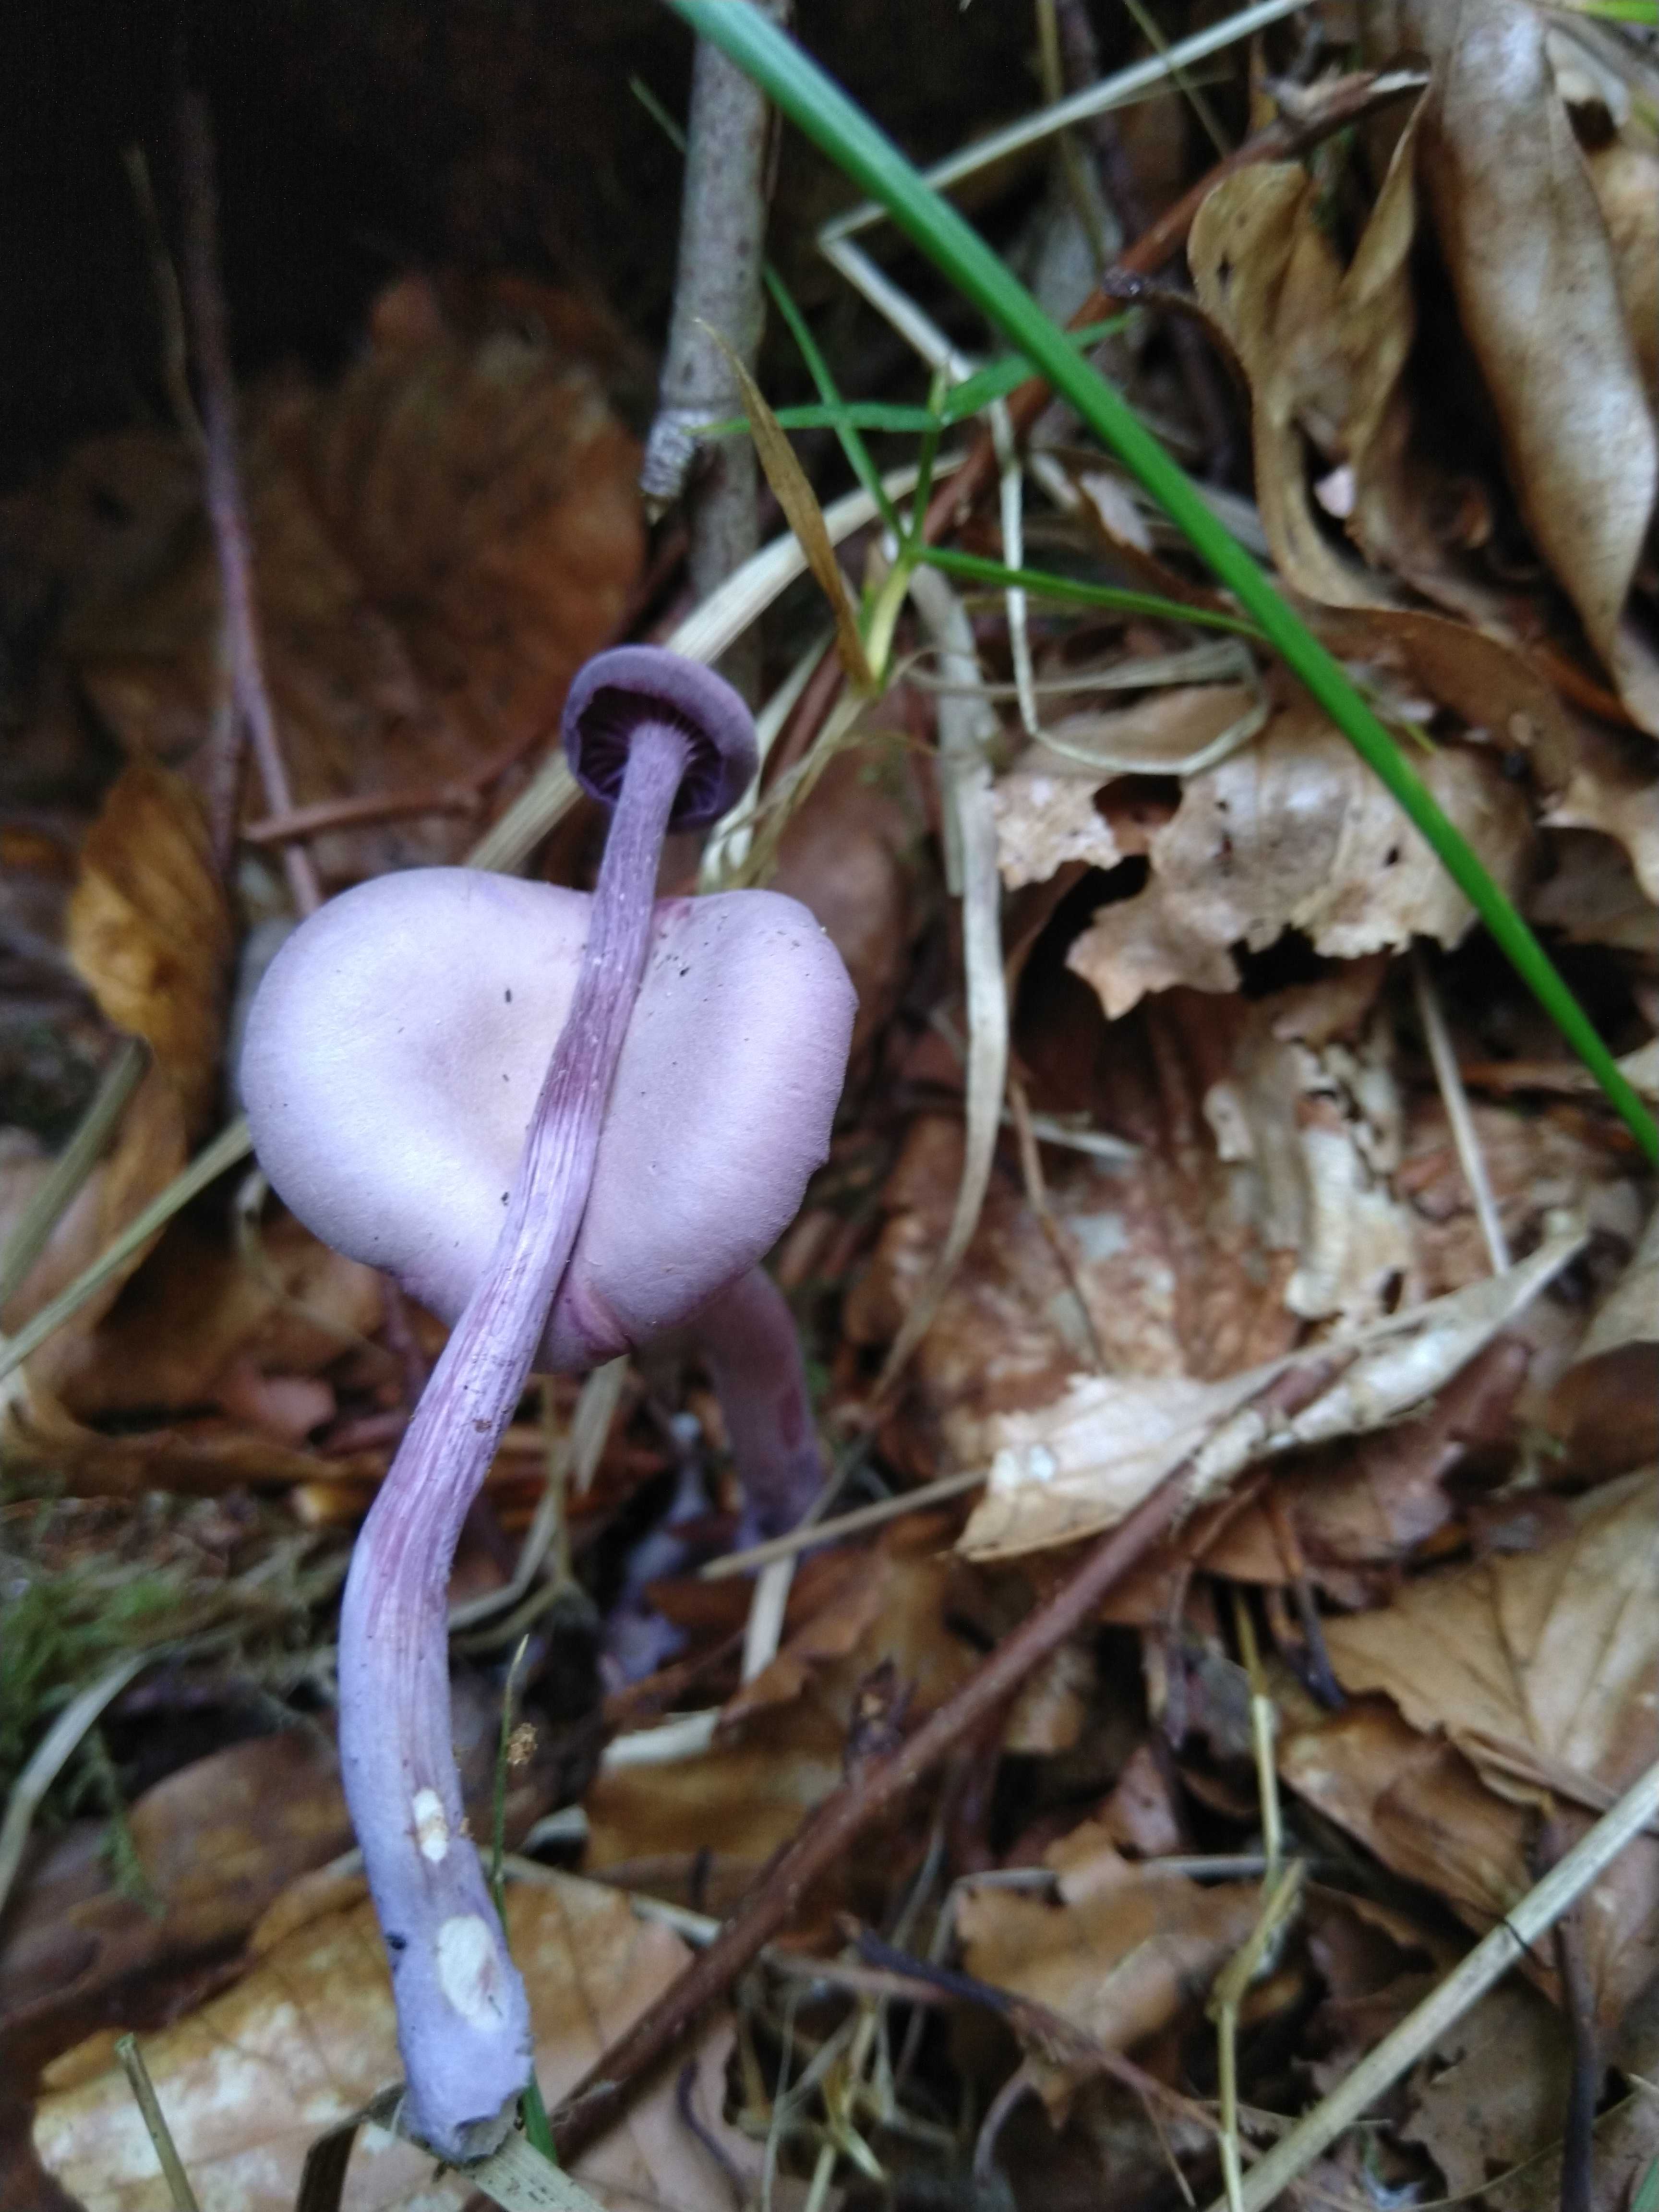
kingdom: Fungi
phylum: Basidiomycota
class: Agaricomycetes
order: Agaricales
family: Hydnangiaceae
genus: Laccaria
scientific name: Laccaria amethystina
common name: violet ametysthat
